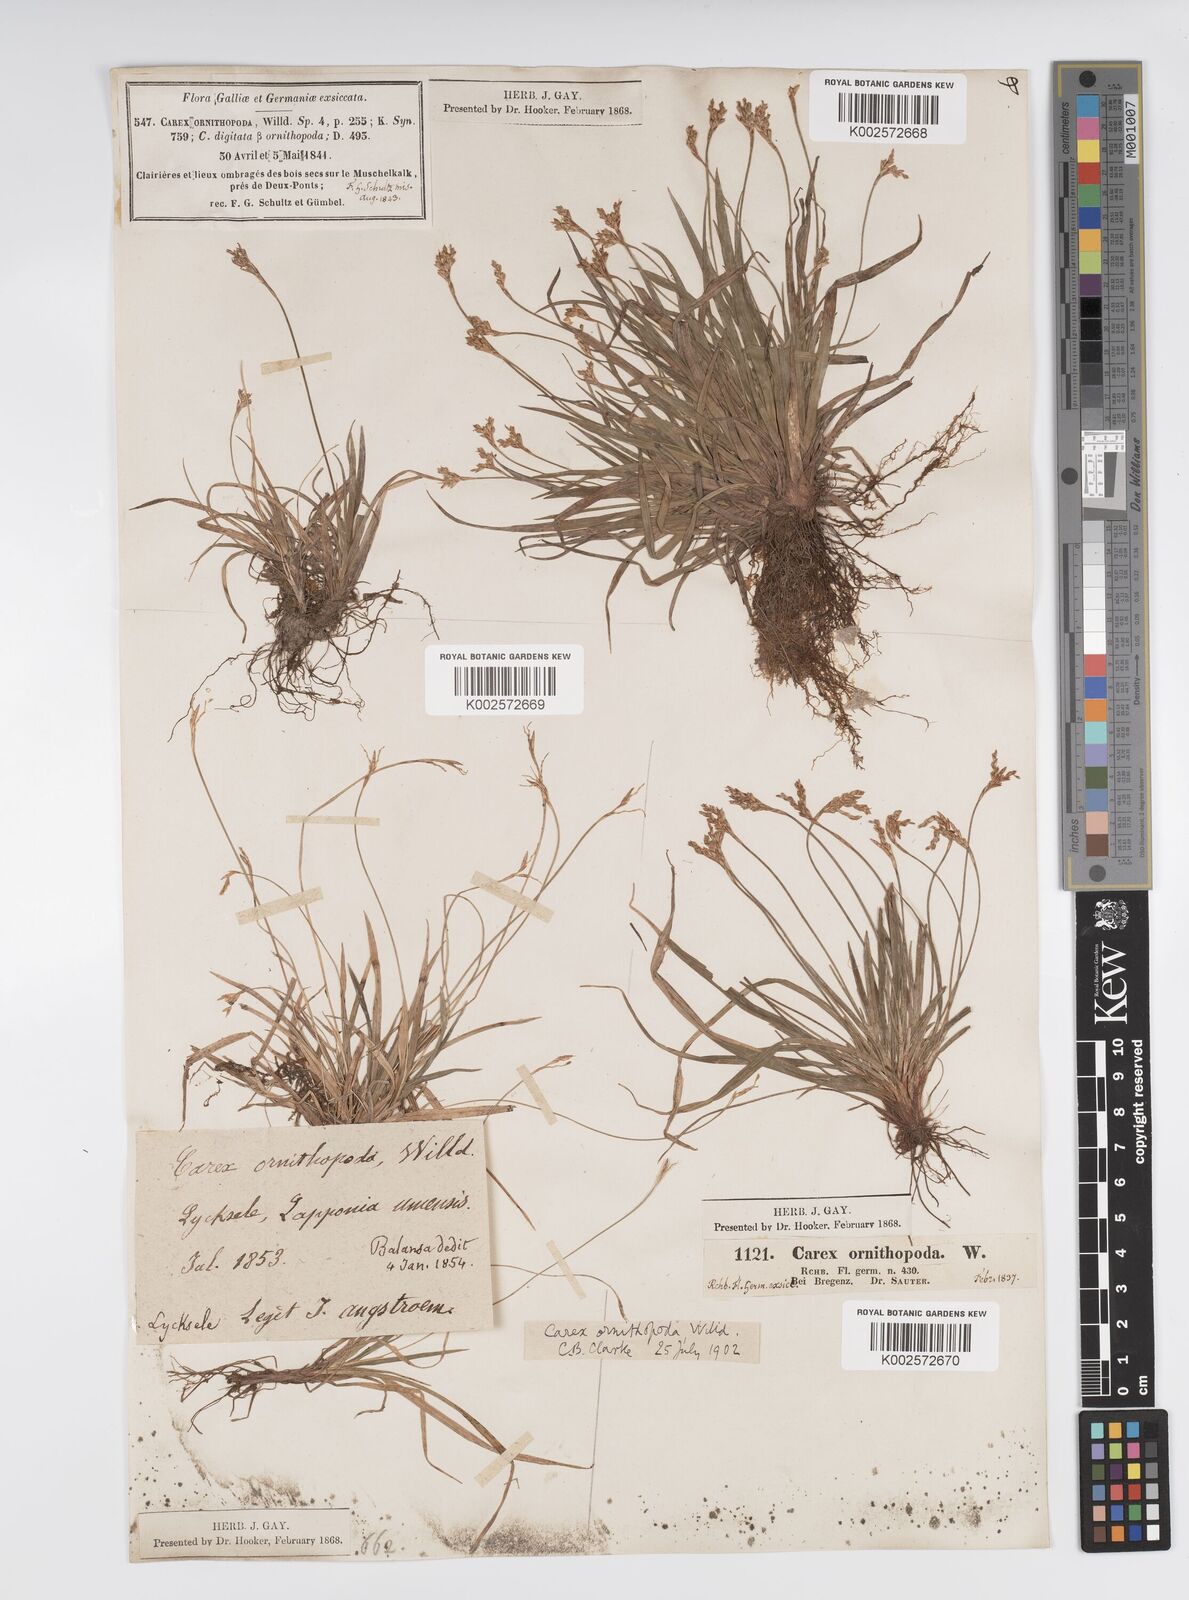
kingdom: Plantae
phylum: Tracheophyta
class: Liliopsida
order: Poales
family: Cyperaceae
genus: Carex
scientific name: Carex ornithopoda
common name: Bird's-foot sedge
